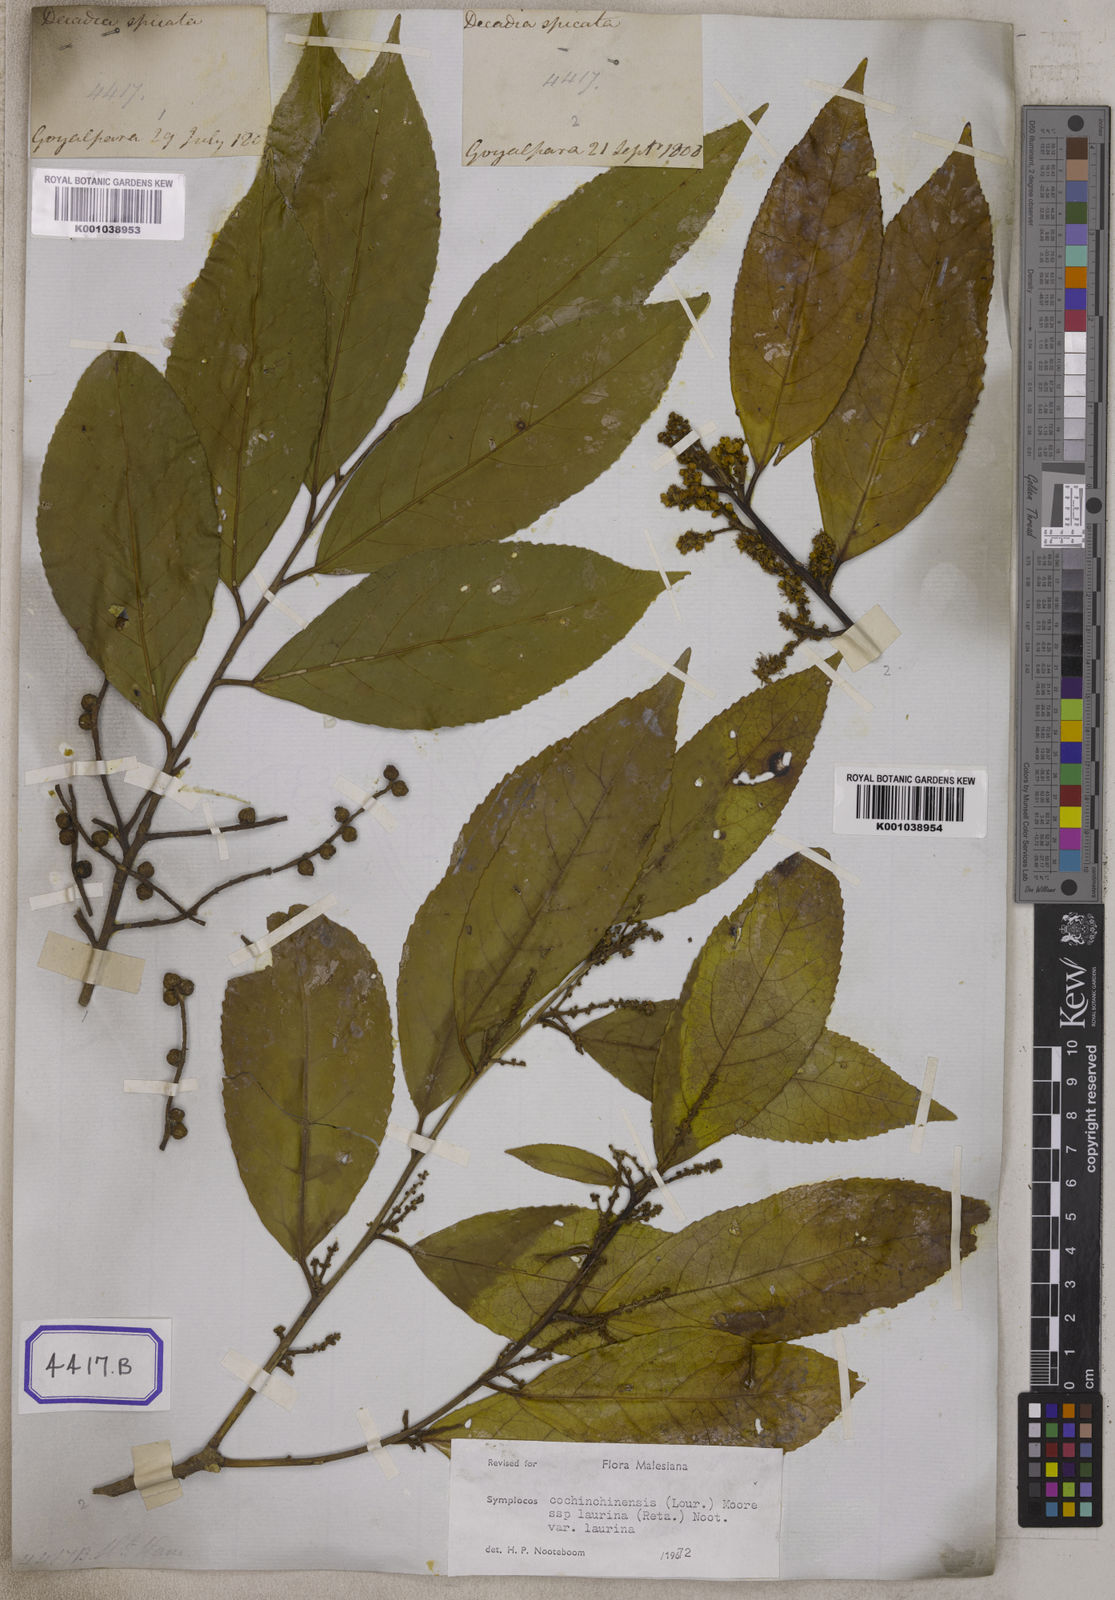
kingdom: Plantae
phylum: Tracheophyta
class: Magnoliopsida
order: Ericales
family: Symplocaceae
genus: Symplocos
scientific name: Symplocos acuminata
